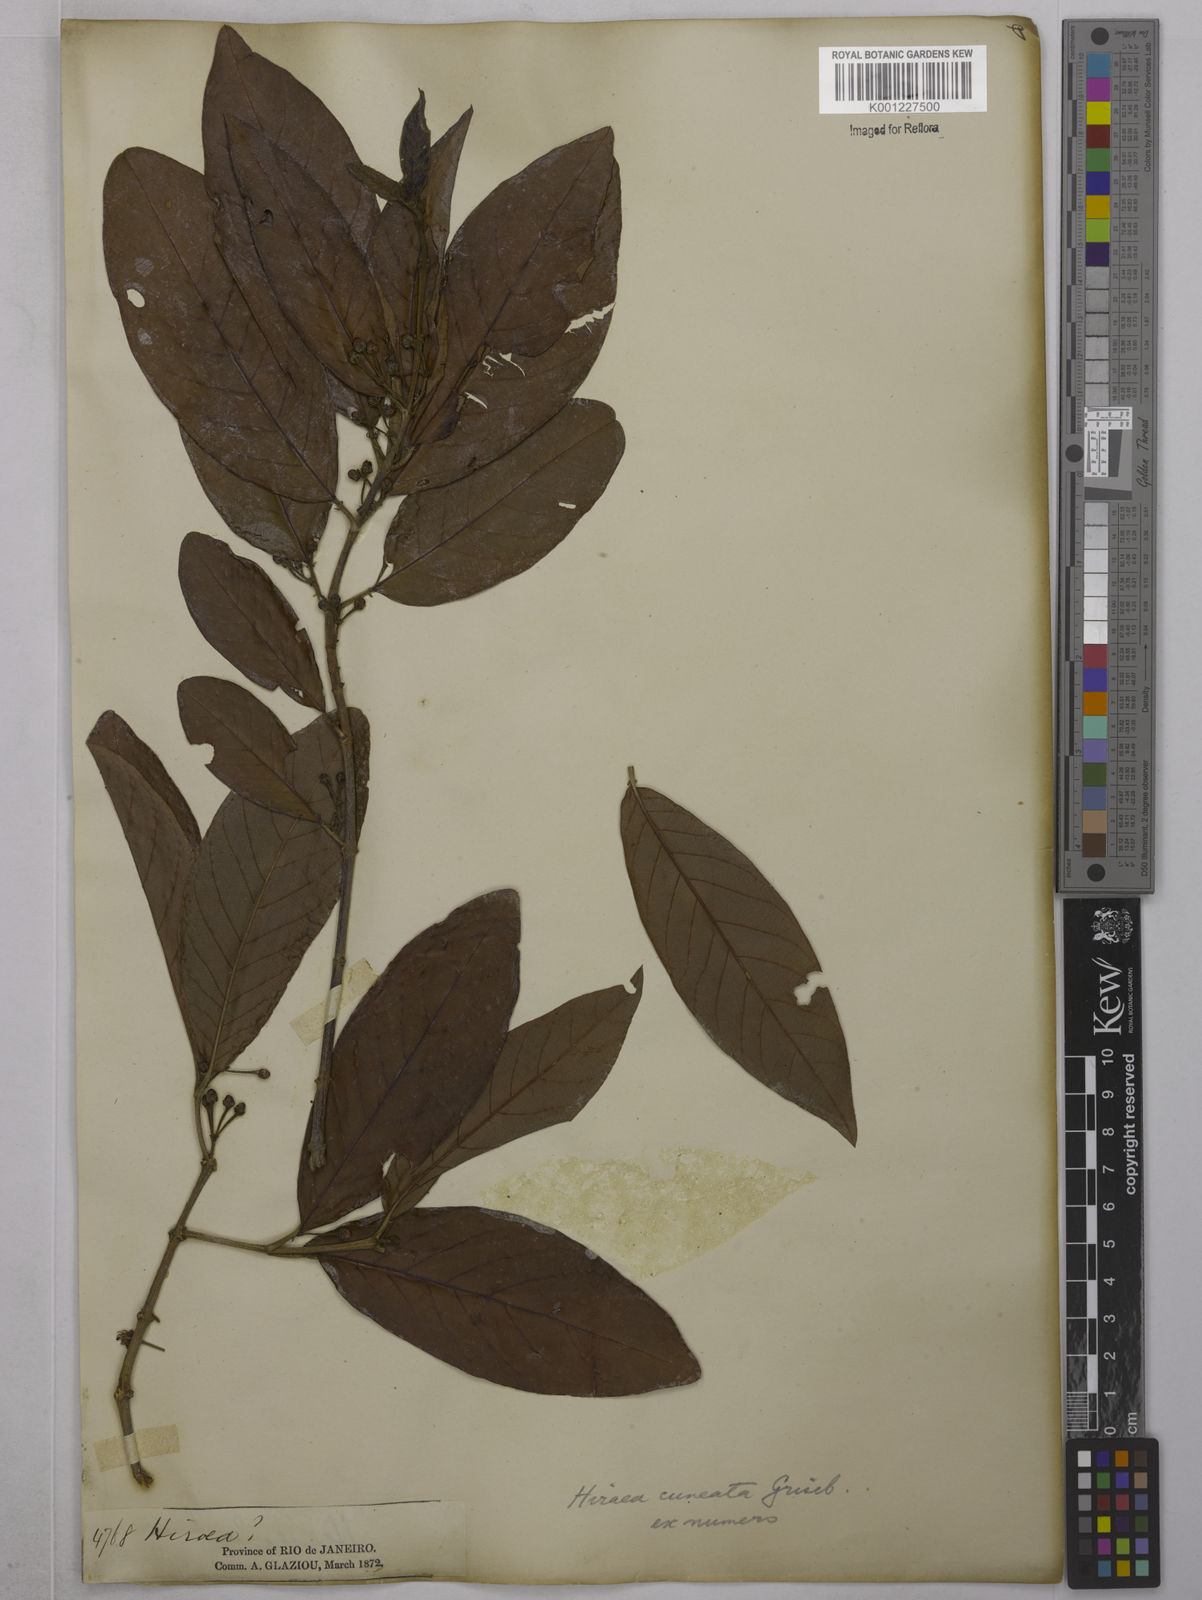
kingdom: Plantae
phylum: Tracheophyta
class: Magnoliopsida
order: Malpighiales
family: Malpighiaceae
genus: Hiraea
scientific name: Hiraea cuneata
